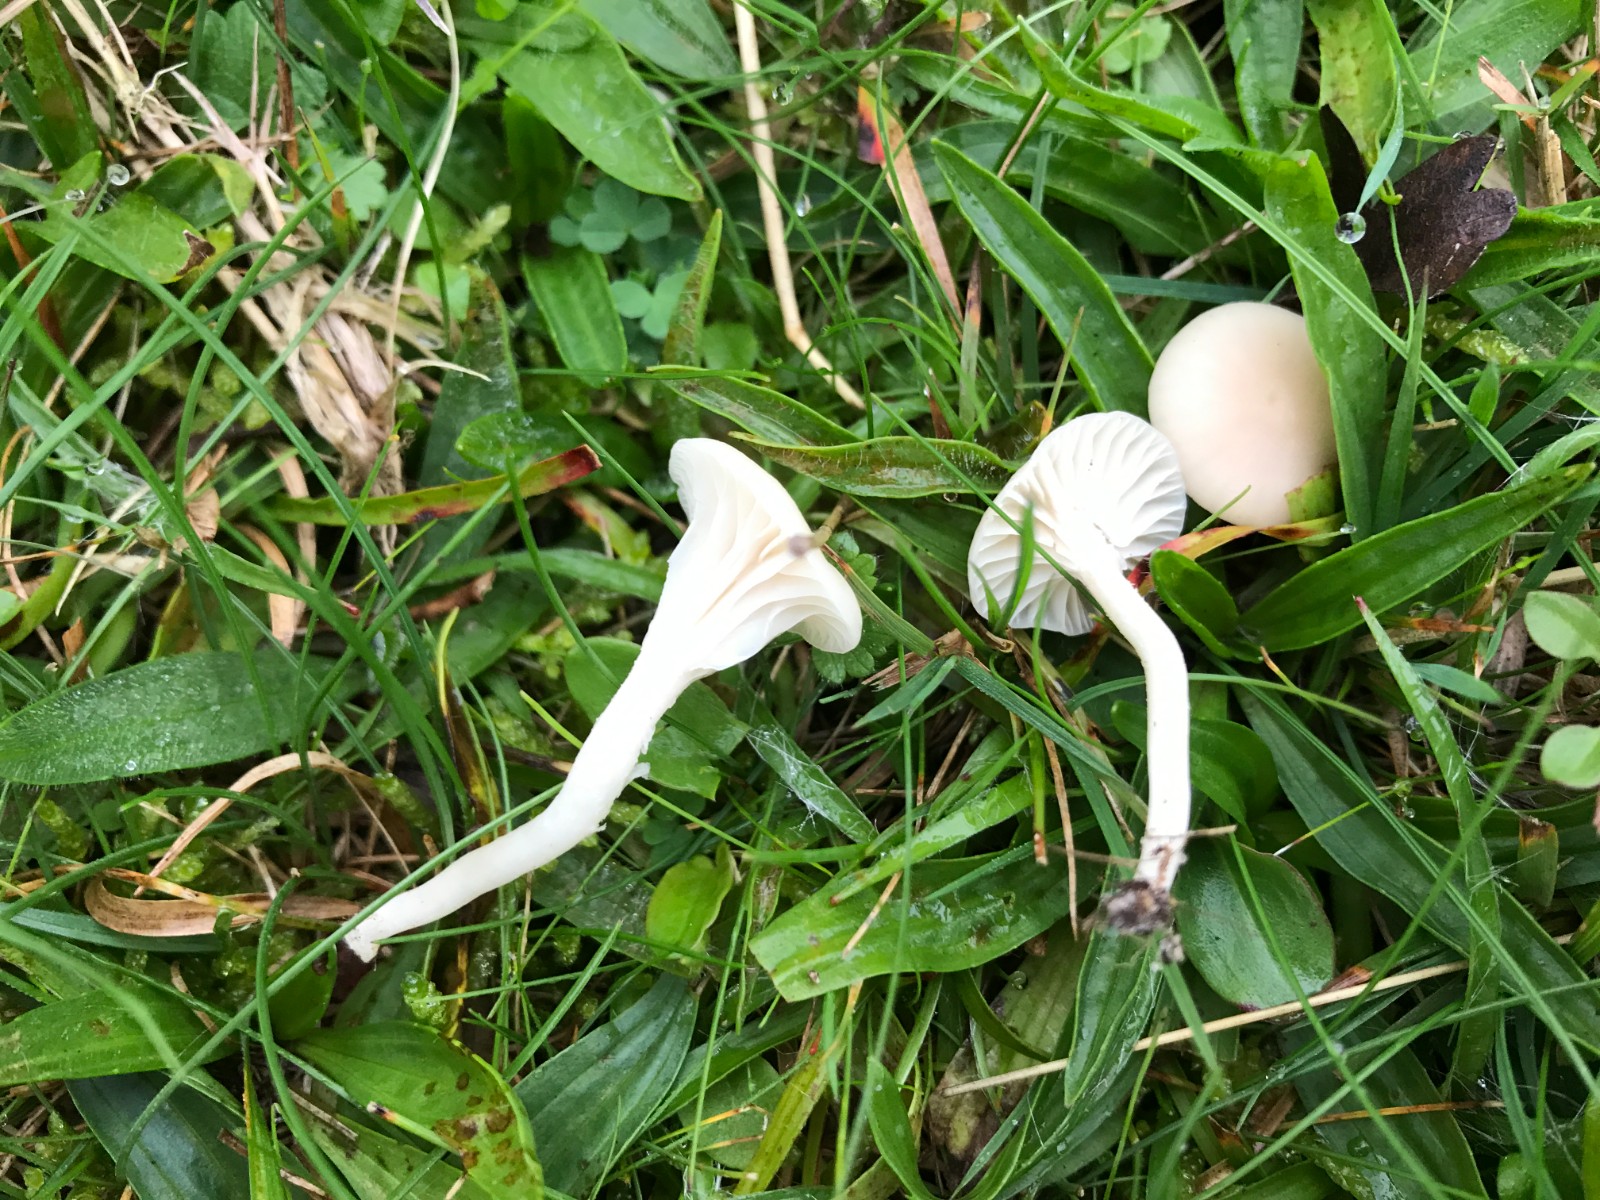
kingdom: Fungi
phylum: Basidiomycota
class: Agaricomycetes
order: Agaricales
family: Hygrophoraceae
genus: Cuphophyllus
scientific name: Cuphophyllus virgineus
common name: snehvid vokshat
